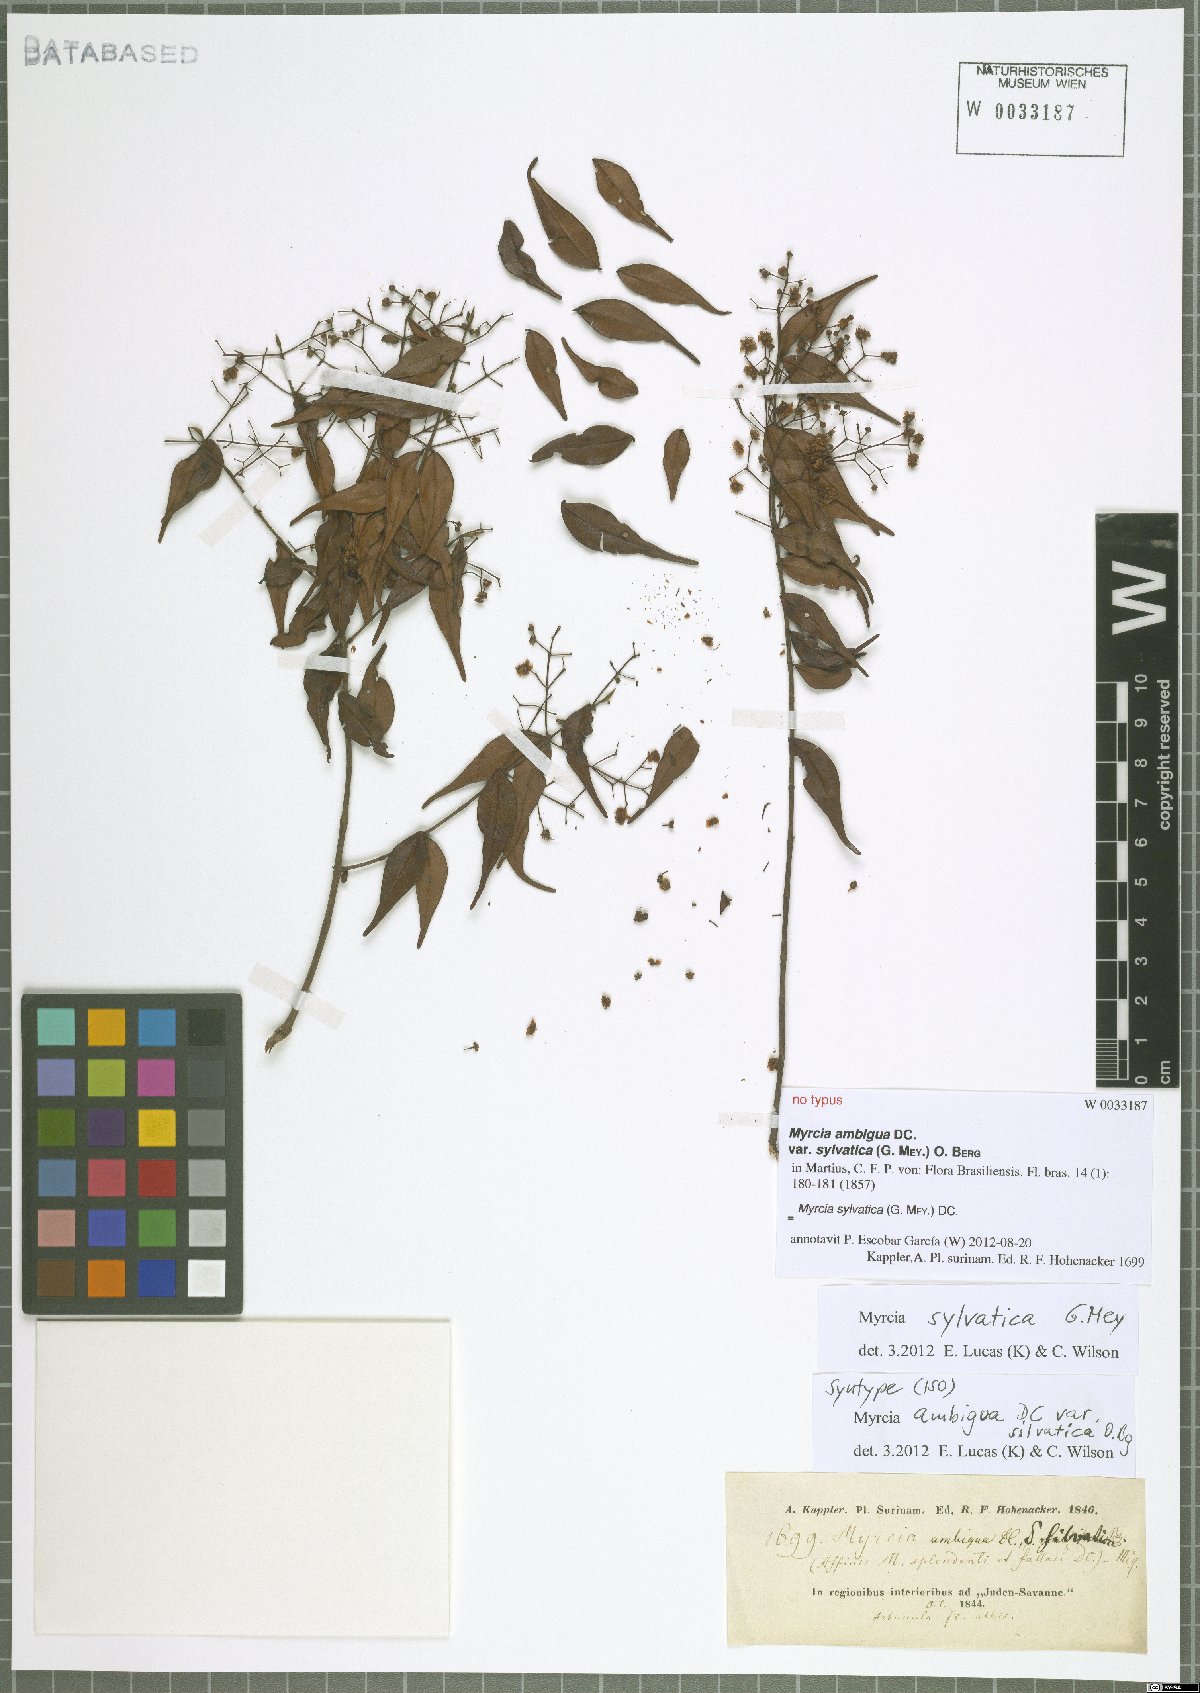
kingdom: Plantae
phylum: Tracheophyta
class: Magnoliopsida
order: Myrtales
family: Myrtaceae
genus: Myrcia
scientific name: Myrcia sylvatica
